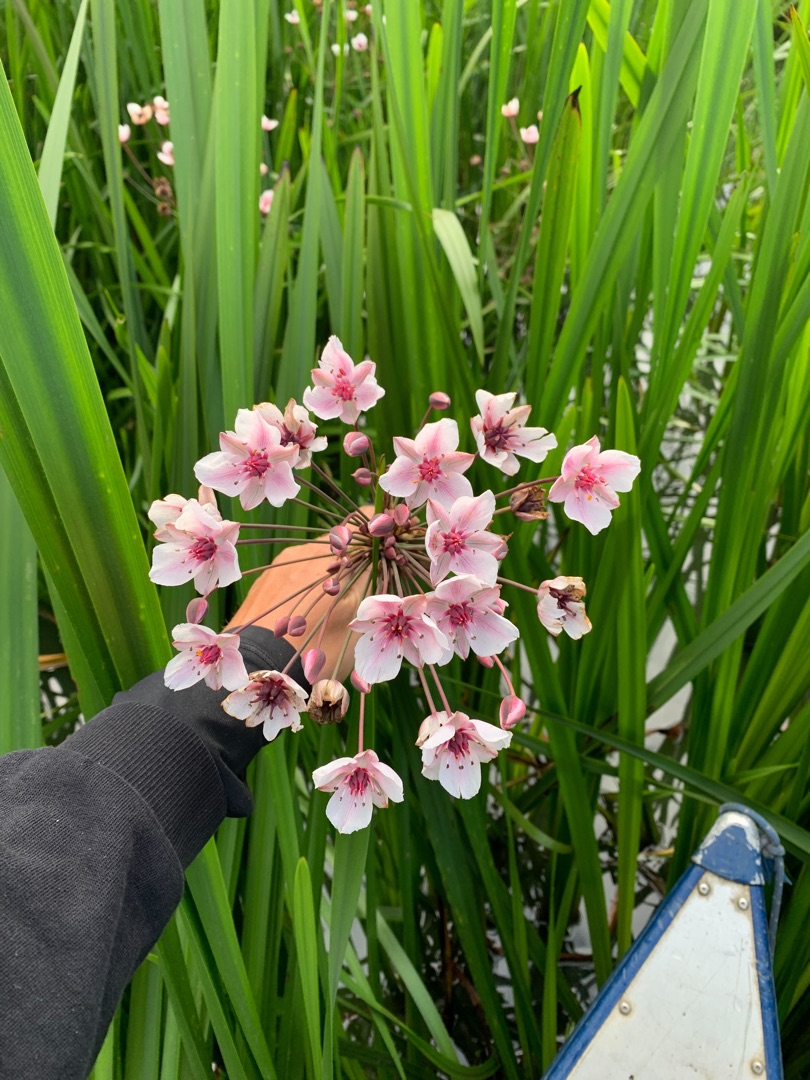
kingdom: Plantae
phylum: Tracheophyta
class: Liliopsida
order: Alismatales
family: Butomaceae
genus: Butomus
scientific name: Butomus umbellatus
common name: Brudelys
